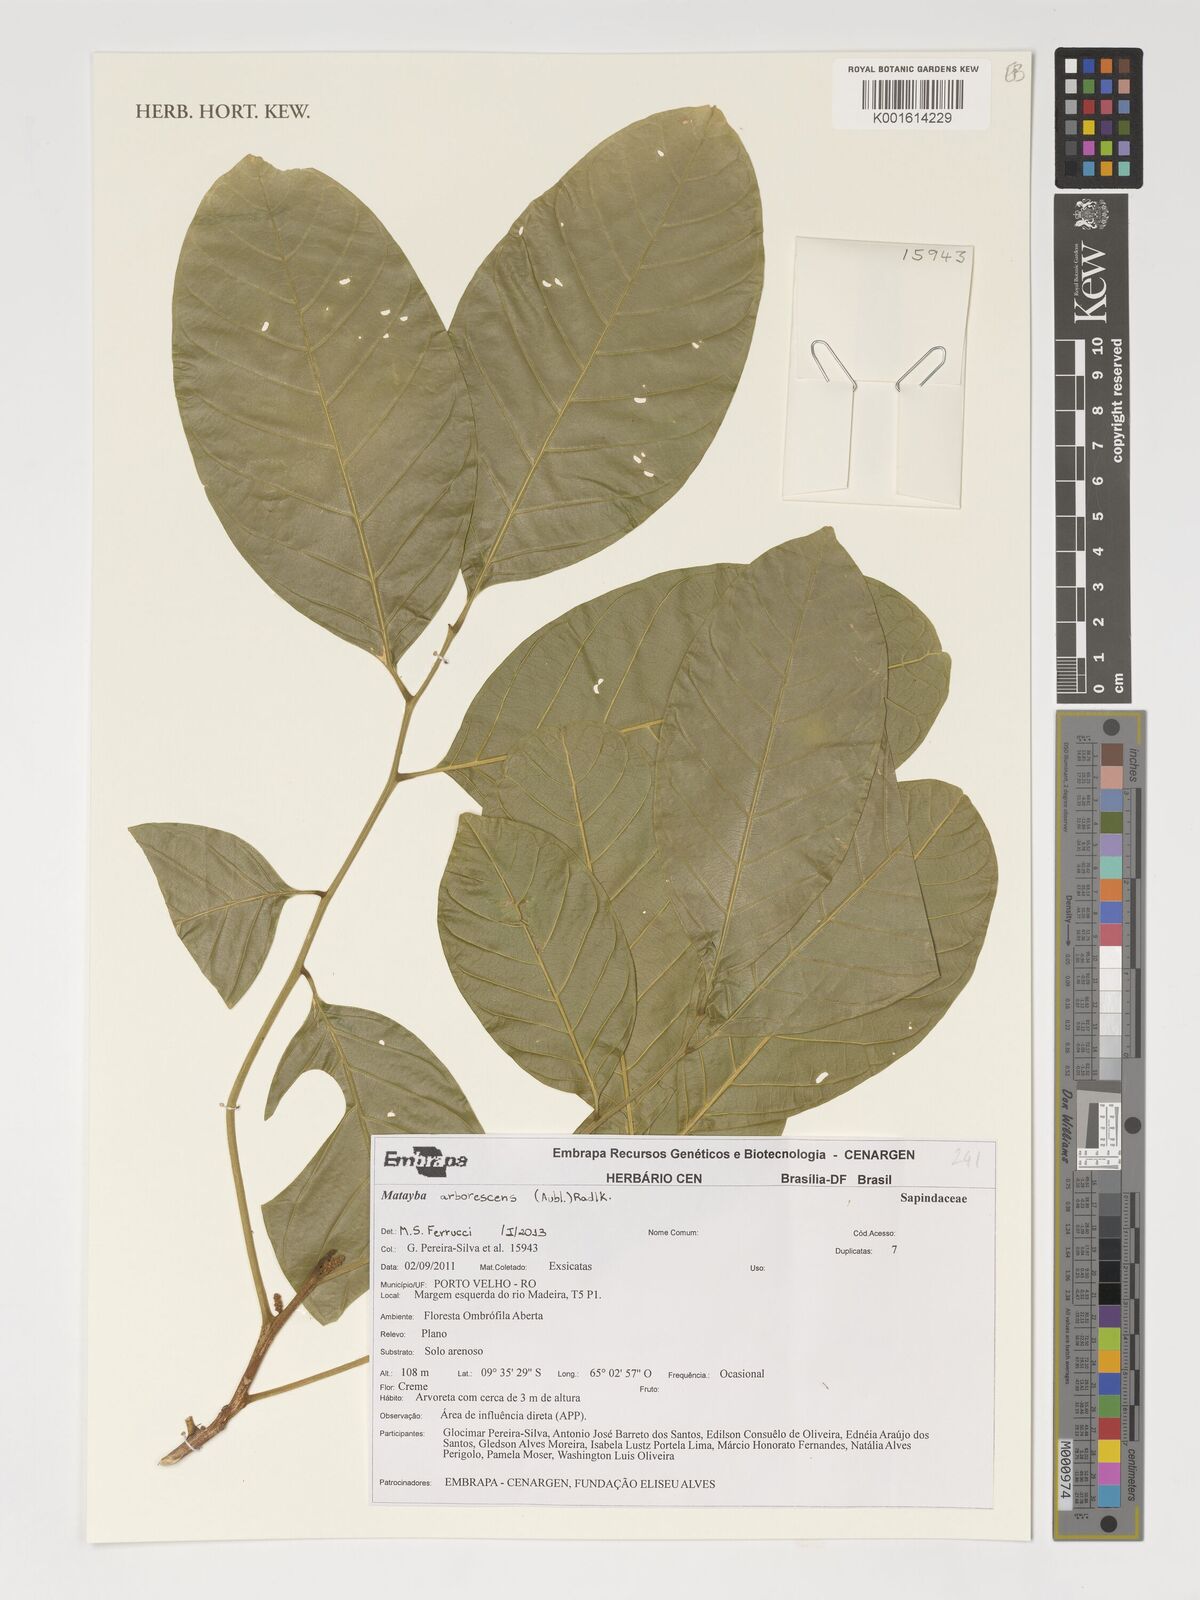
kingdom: Plantae
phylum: Tracheophyta
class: Magnoliopsida
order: Sapindales
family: Sapindaceae
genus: Matayba
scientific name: Matayba arborescens
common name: Arborescent matayba
